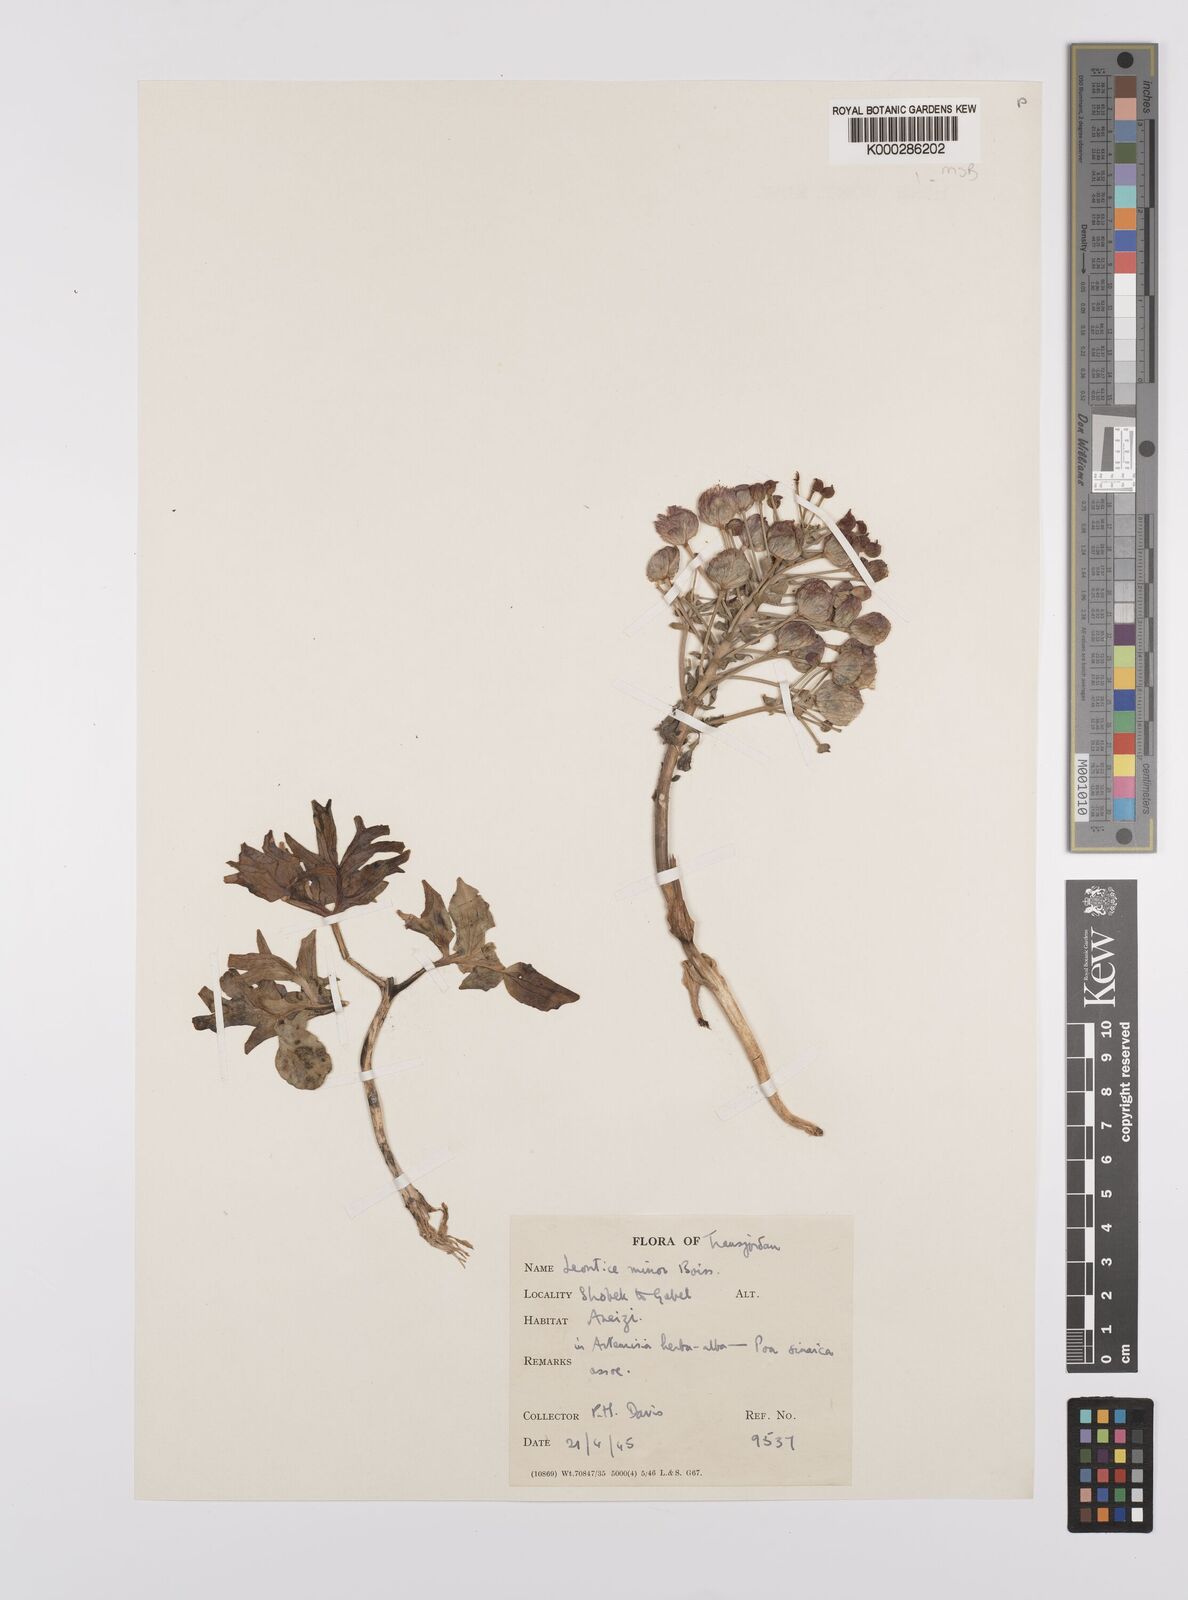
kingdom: Plantae
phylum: Tracheophyta
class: Magnoliopsida
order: Ranunculales
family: Berberidaceae
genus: Leontice
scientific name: Leontice leontopetalum
